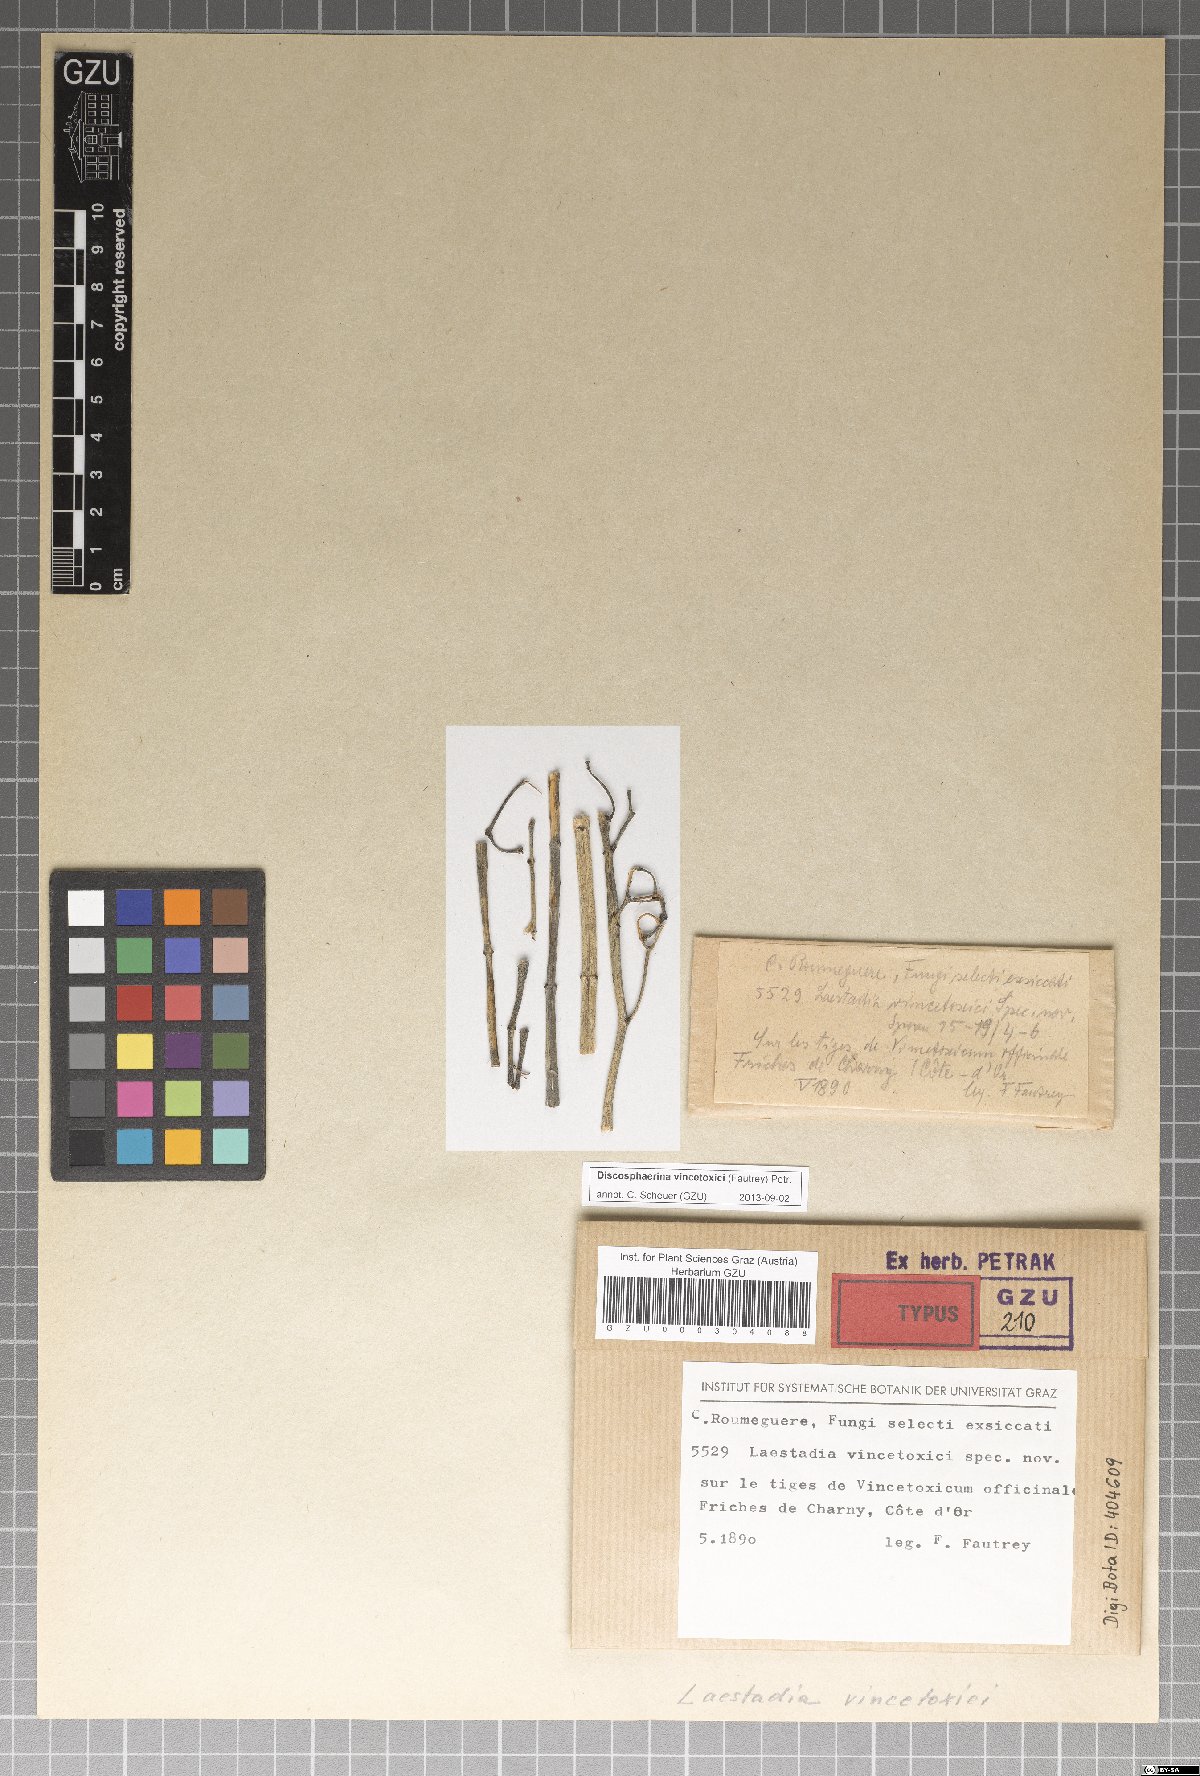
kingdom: Fungi
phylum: Ascomycota
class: Sordariomycetes
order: Xylariales
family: Hyponectriaceae
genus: Discosphaerina
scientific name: Discosphaerina vincetoxici
